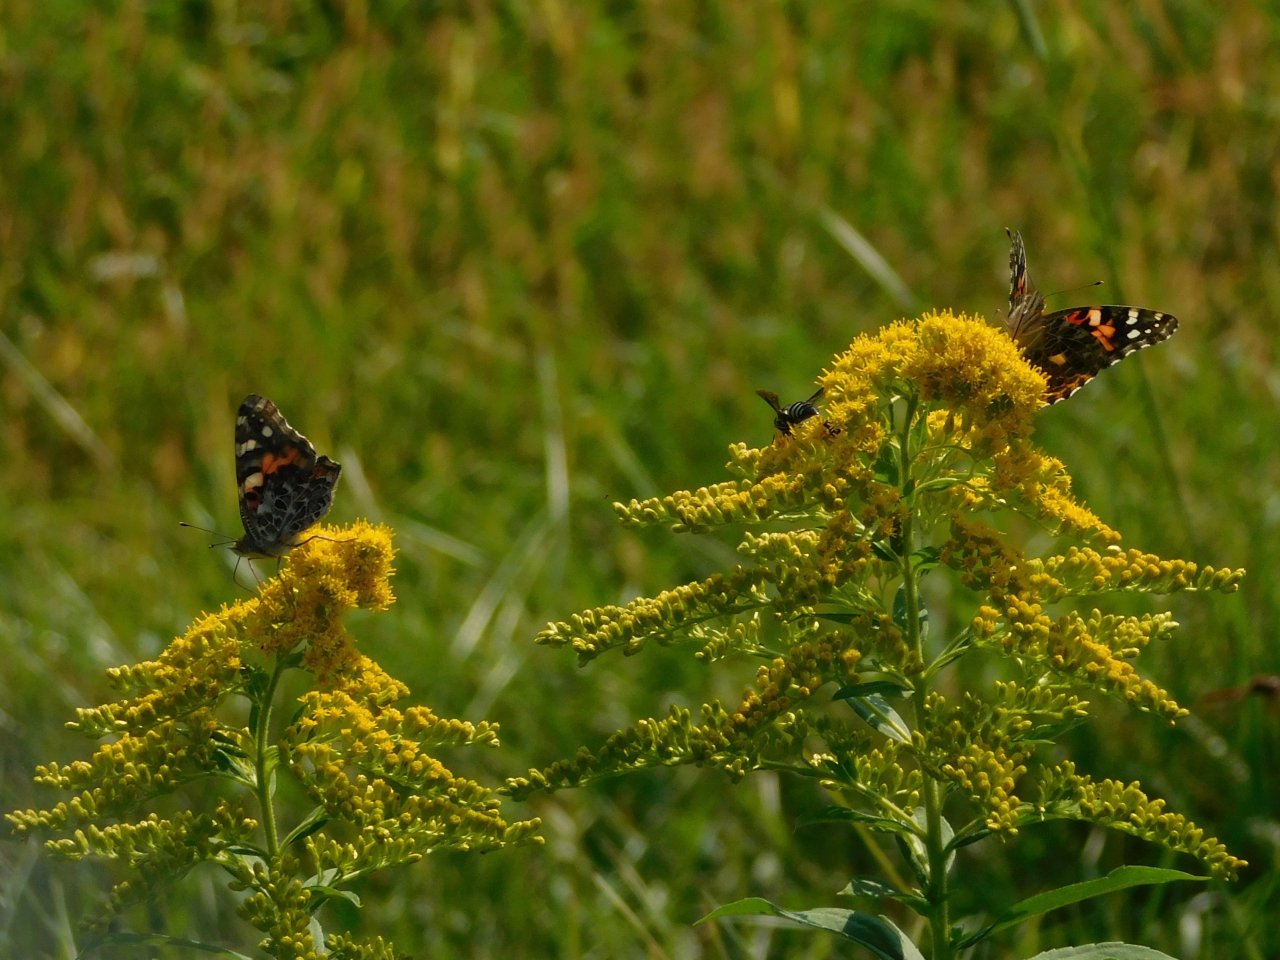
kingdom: Animalia
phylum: Arthropoda
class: Insecta
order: Lepidoptera
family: Nymphalidae
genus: Vanessa
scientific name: Vanessa cardui
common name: Painted Lady
